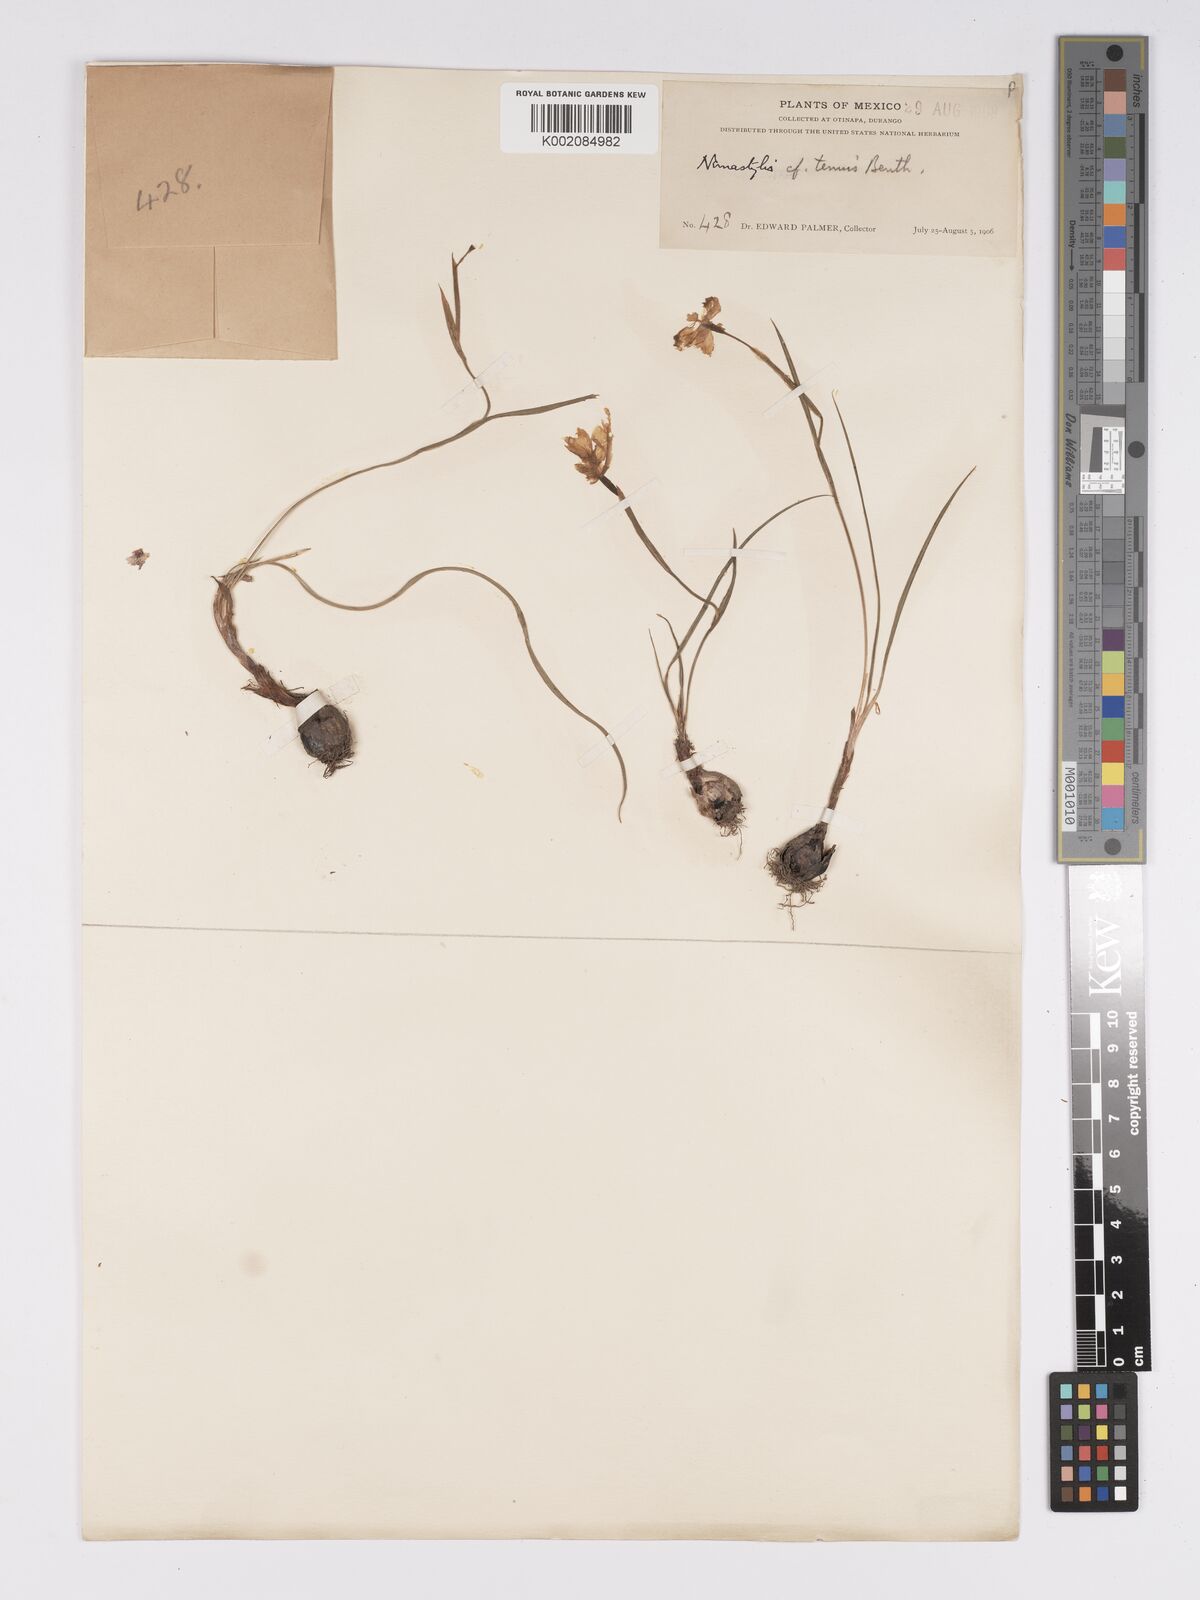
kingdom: Plantae
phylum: Tracheophyta
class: Liliopsida
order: Asparagales
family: Iridaceae
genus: Nemastylis
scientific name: Nemastylis tenuis
